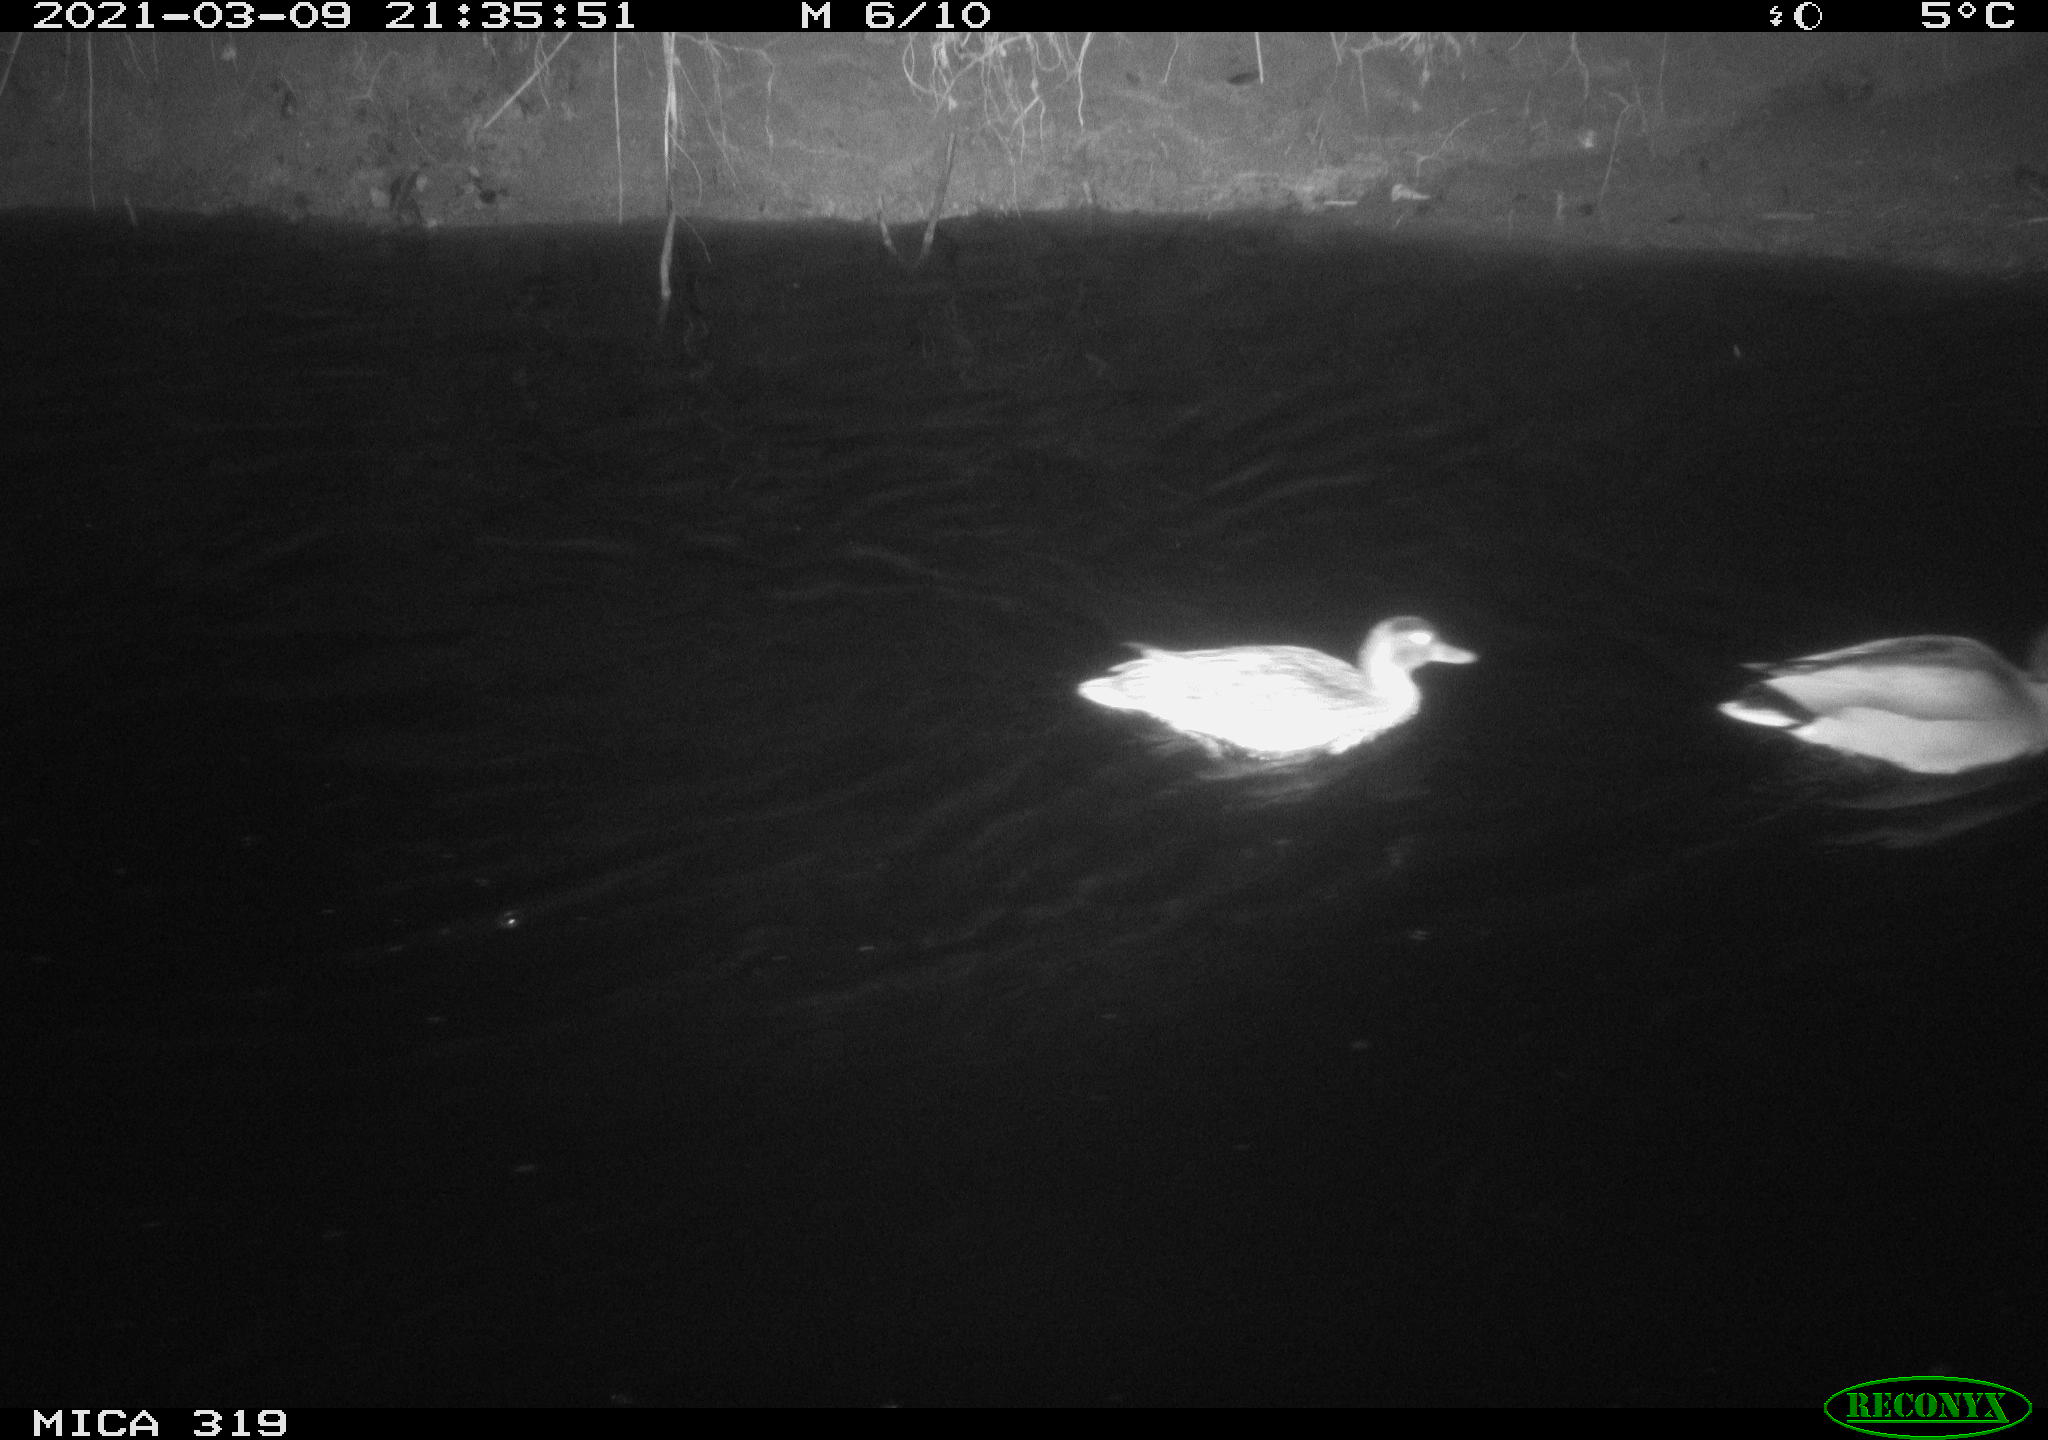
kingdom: Animalia
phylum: Chordata
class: Aves
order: Anseriformes
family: Anatidae
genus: Anas
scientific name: Anas platyrhynchos
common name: Mallard
